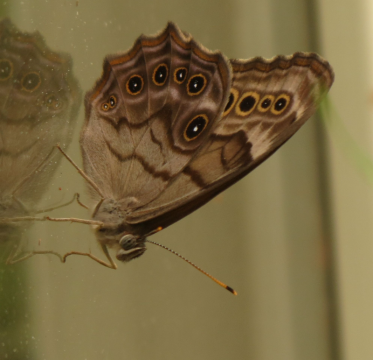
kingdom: Animalia
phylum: Arthropoda
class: Insecta
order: Lepidoptera
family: Nymphalidae
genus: Lethe
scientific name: Lethe anthedon
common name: Northern Pearly-Eye
